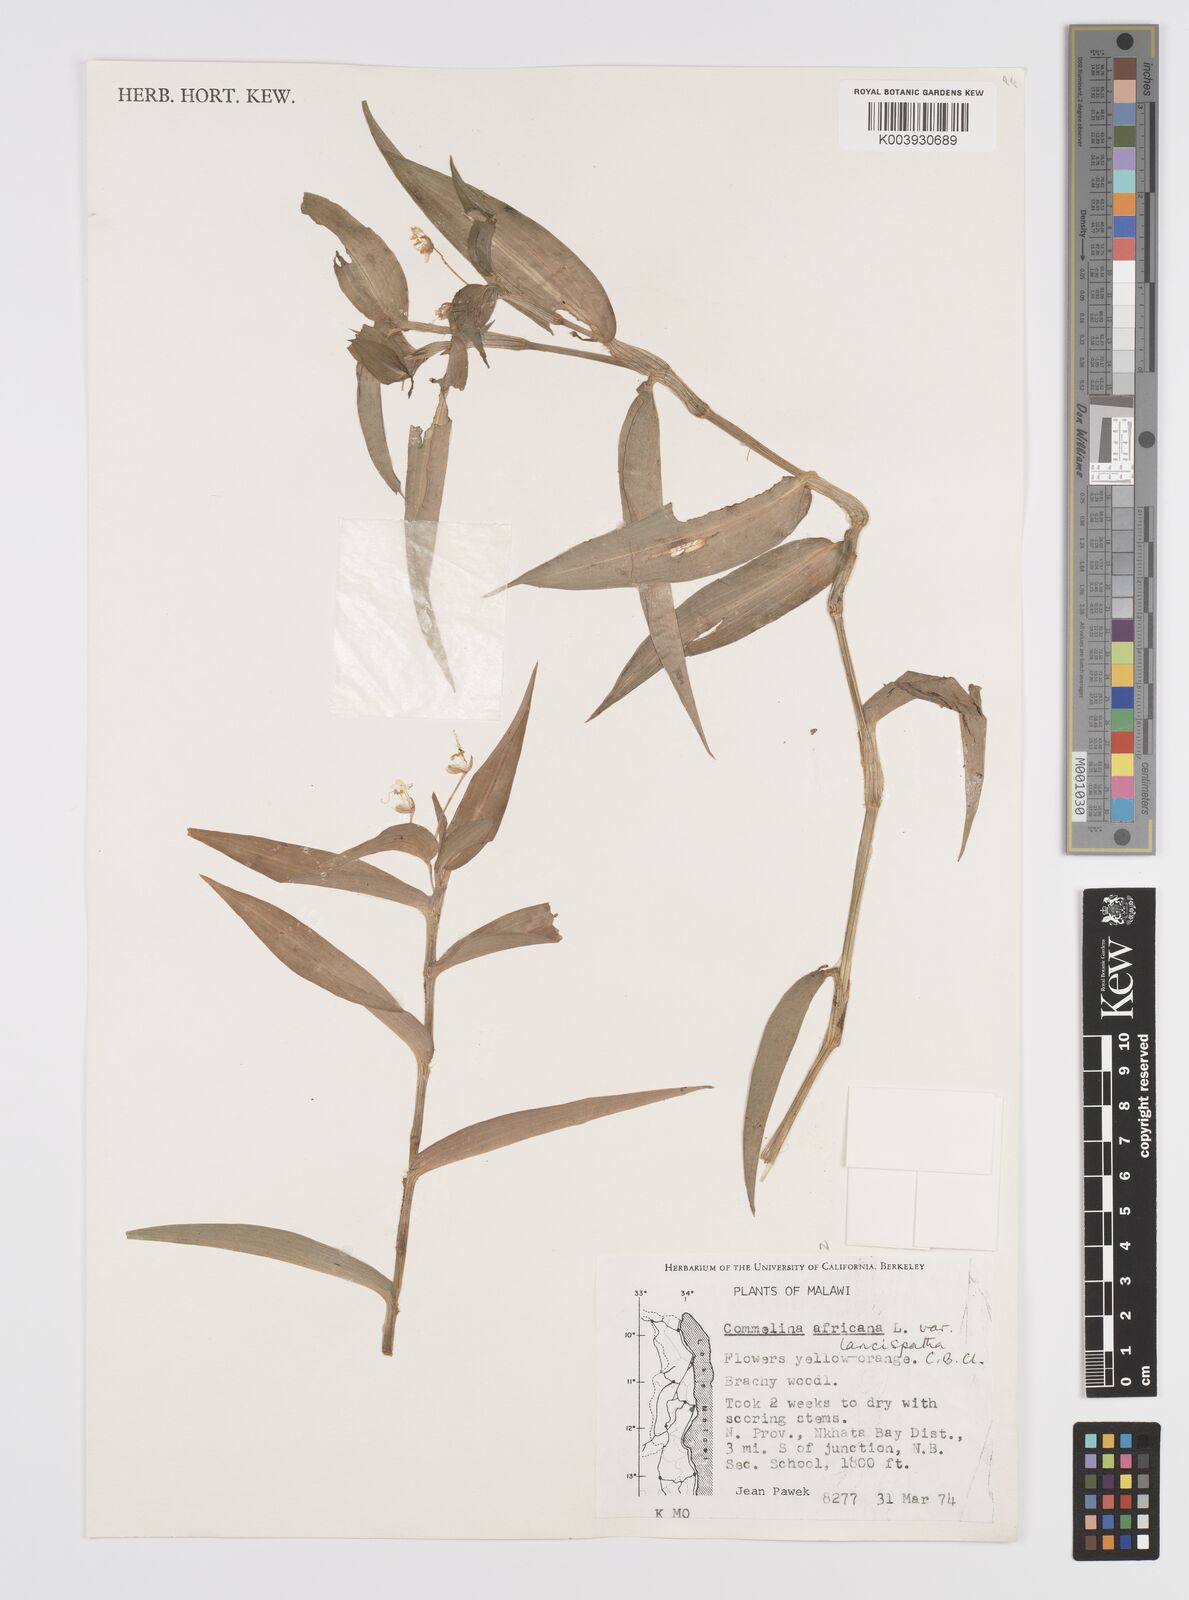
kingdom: Plantae
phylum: Tracheophyta
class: Liliopsida
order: Commelinales
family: Commelinaceae
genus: Commelina
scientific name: Commelina africana
